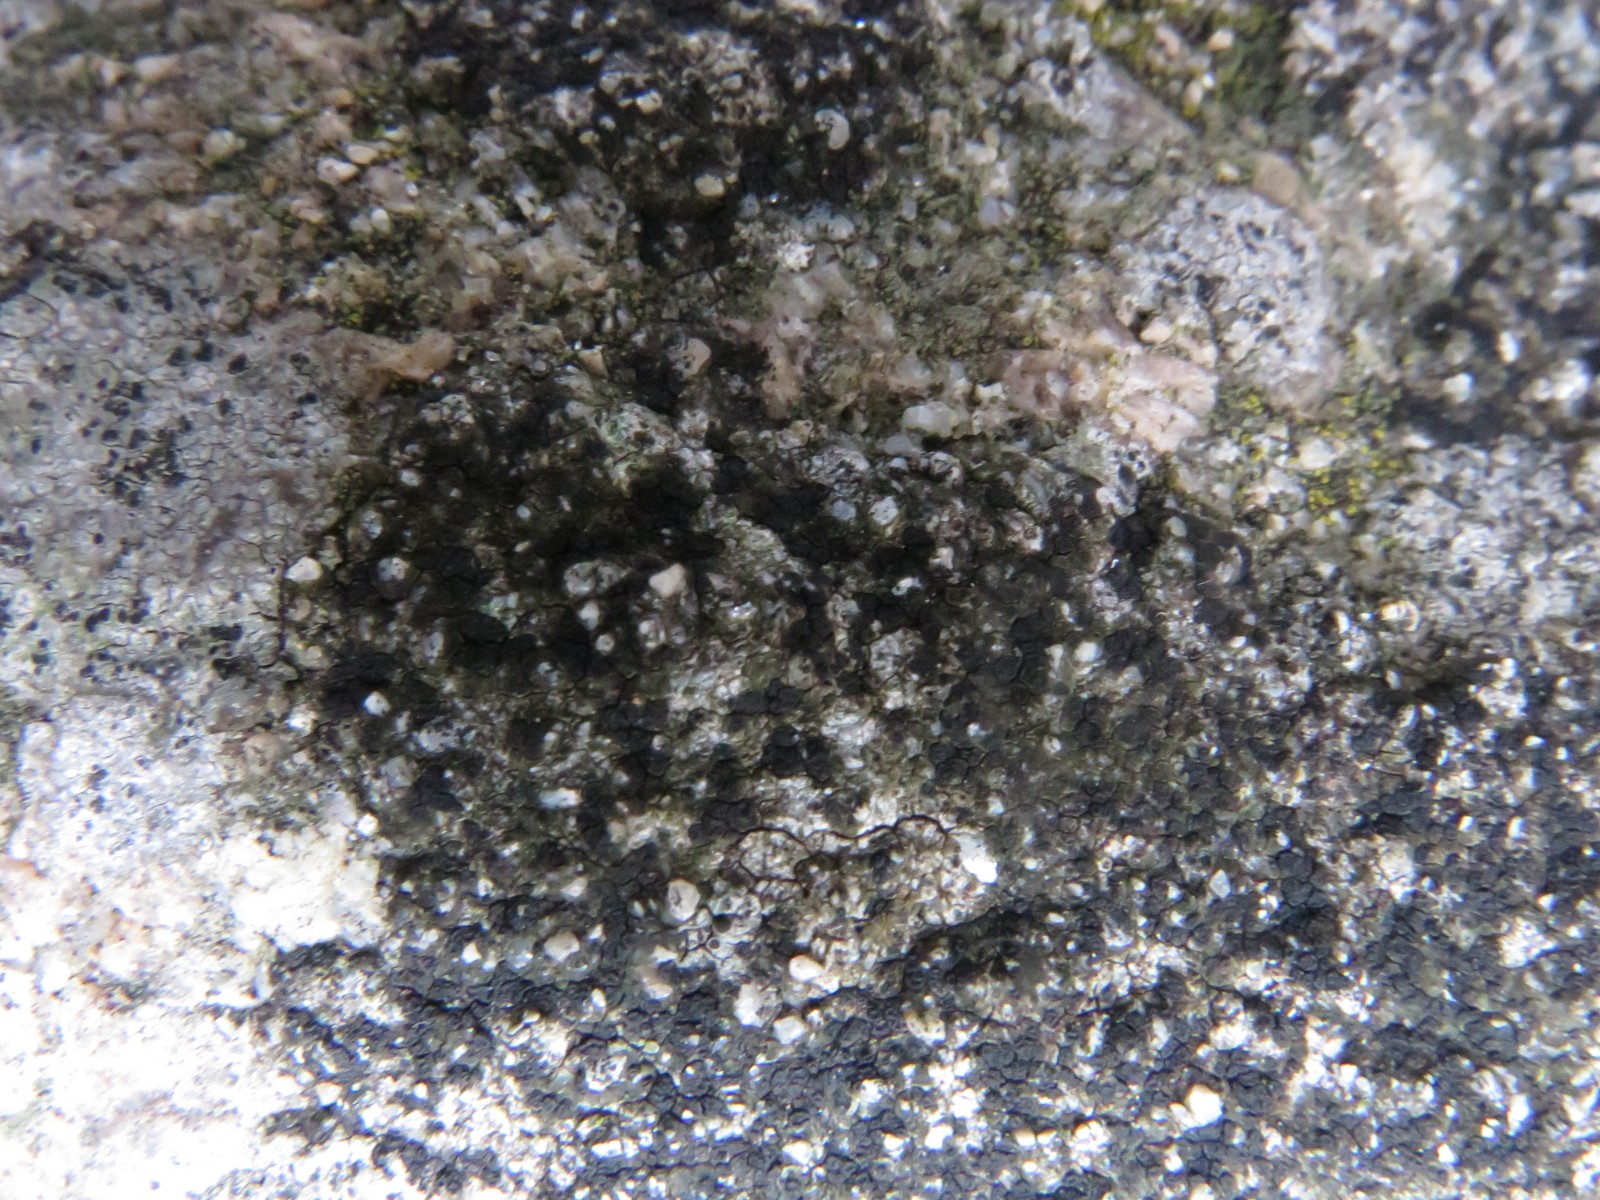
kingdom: Fungi
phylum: Ascomycota
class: Lecanoromycetes
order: Acarosporales
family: Acarosporaceae
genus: Acarospora
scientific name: Acarospora privigna
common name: sort foldekantlav
